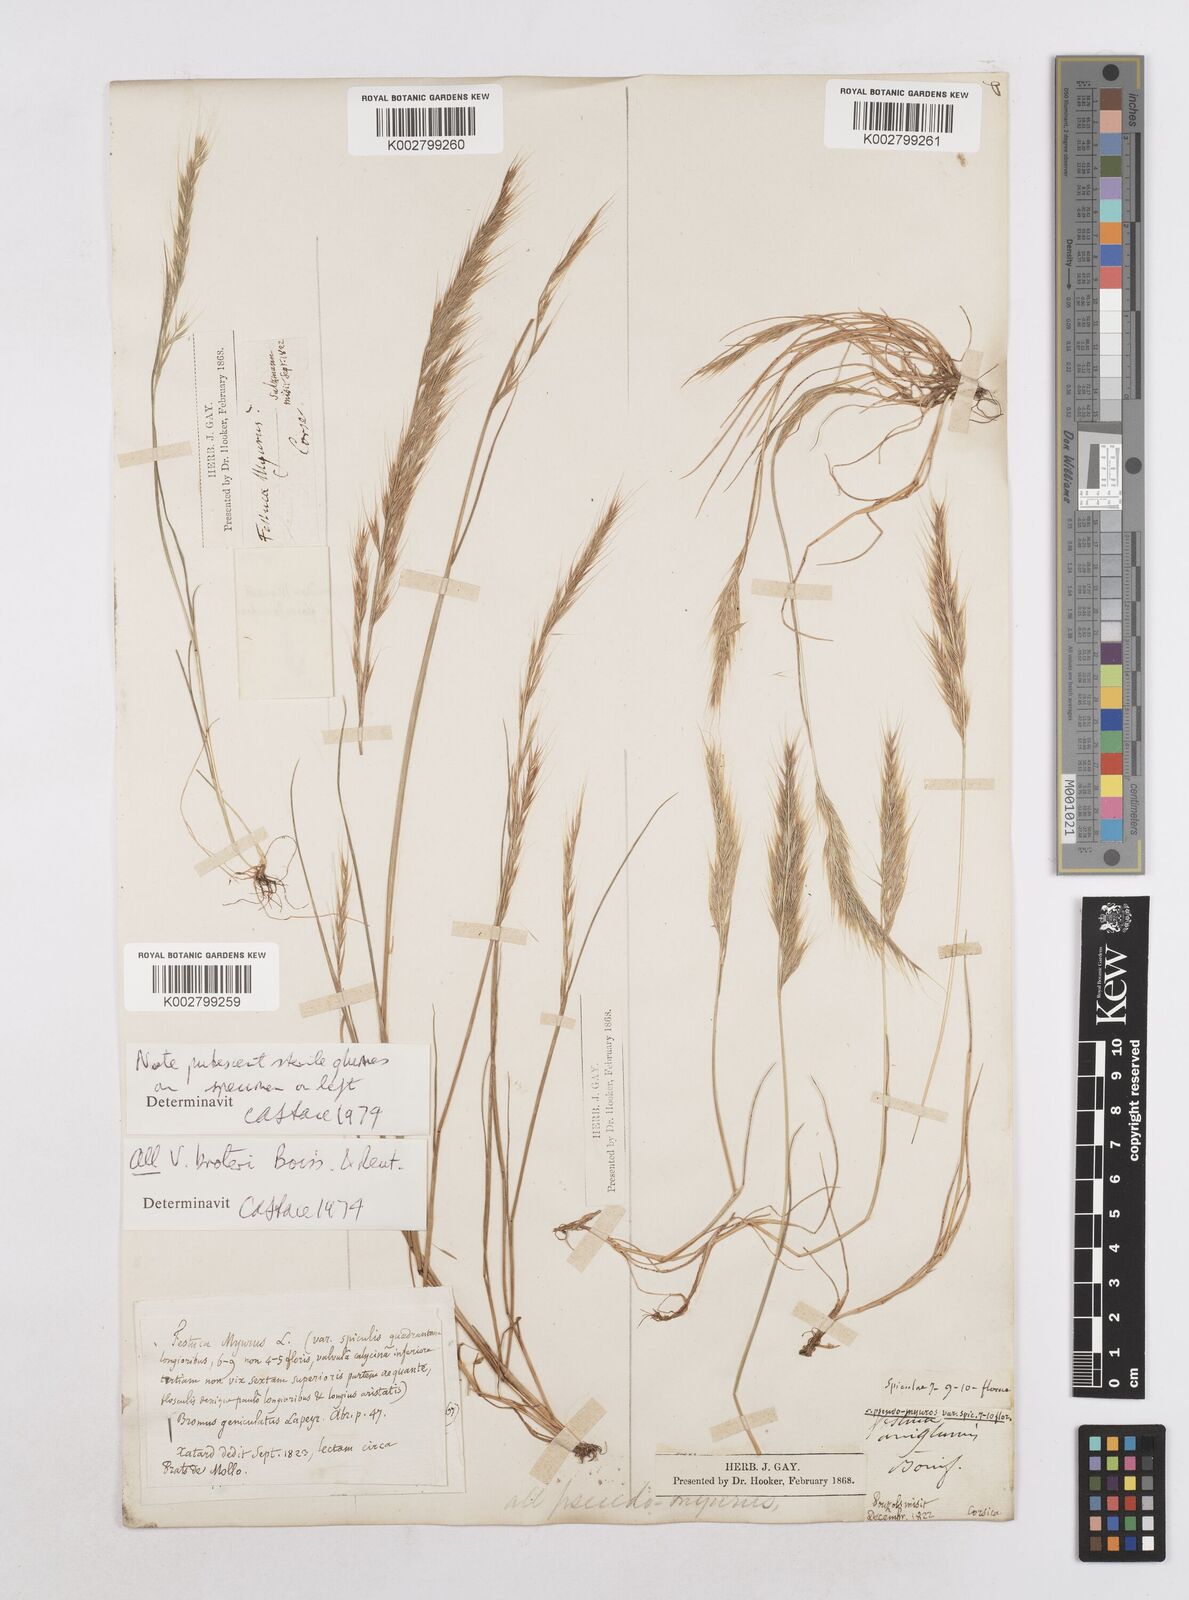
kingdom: Plantae
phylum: Tracheophyta
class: Liliopsida
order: Poales
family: Poaceae
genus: Festuca
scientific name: Festuca muralis
